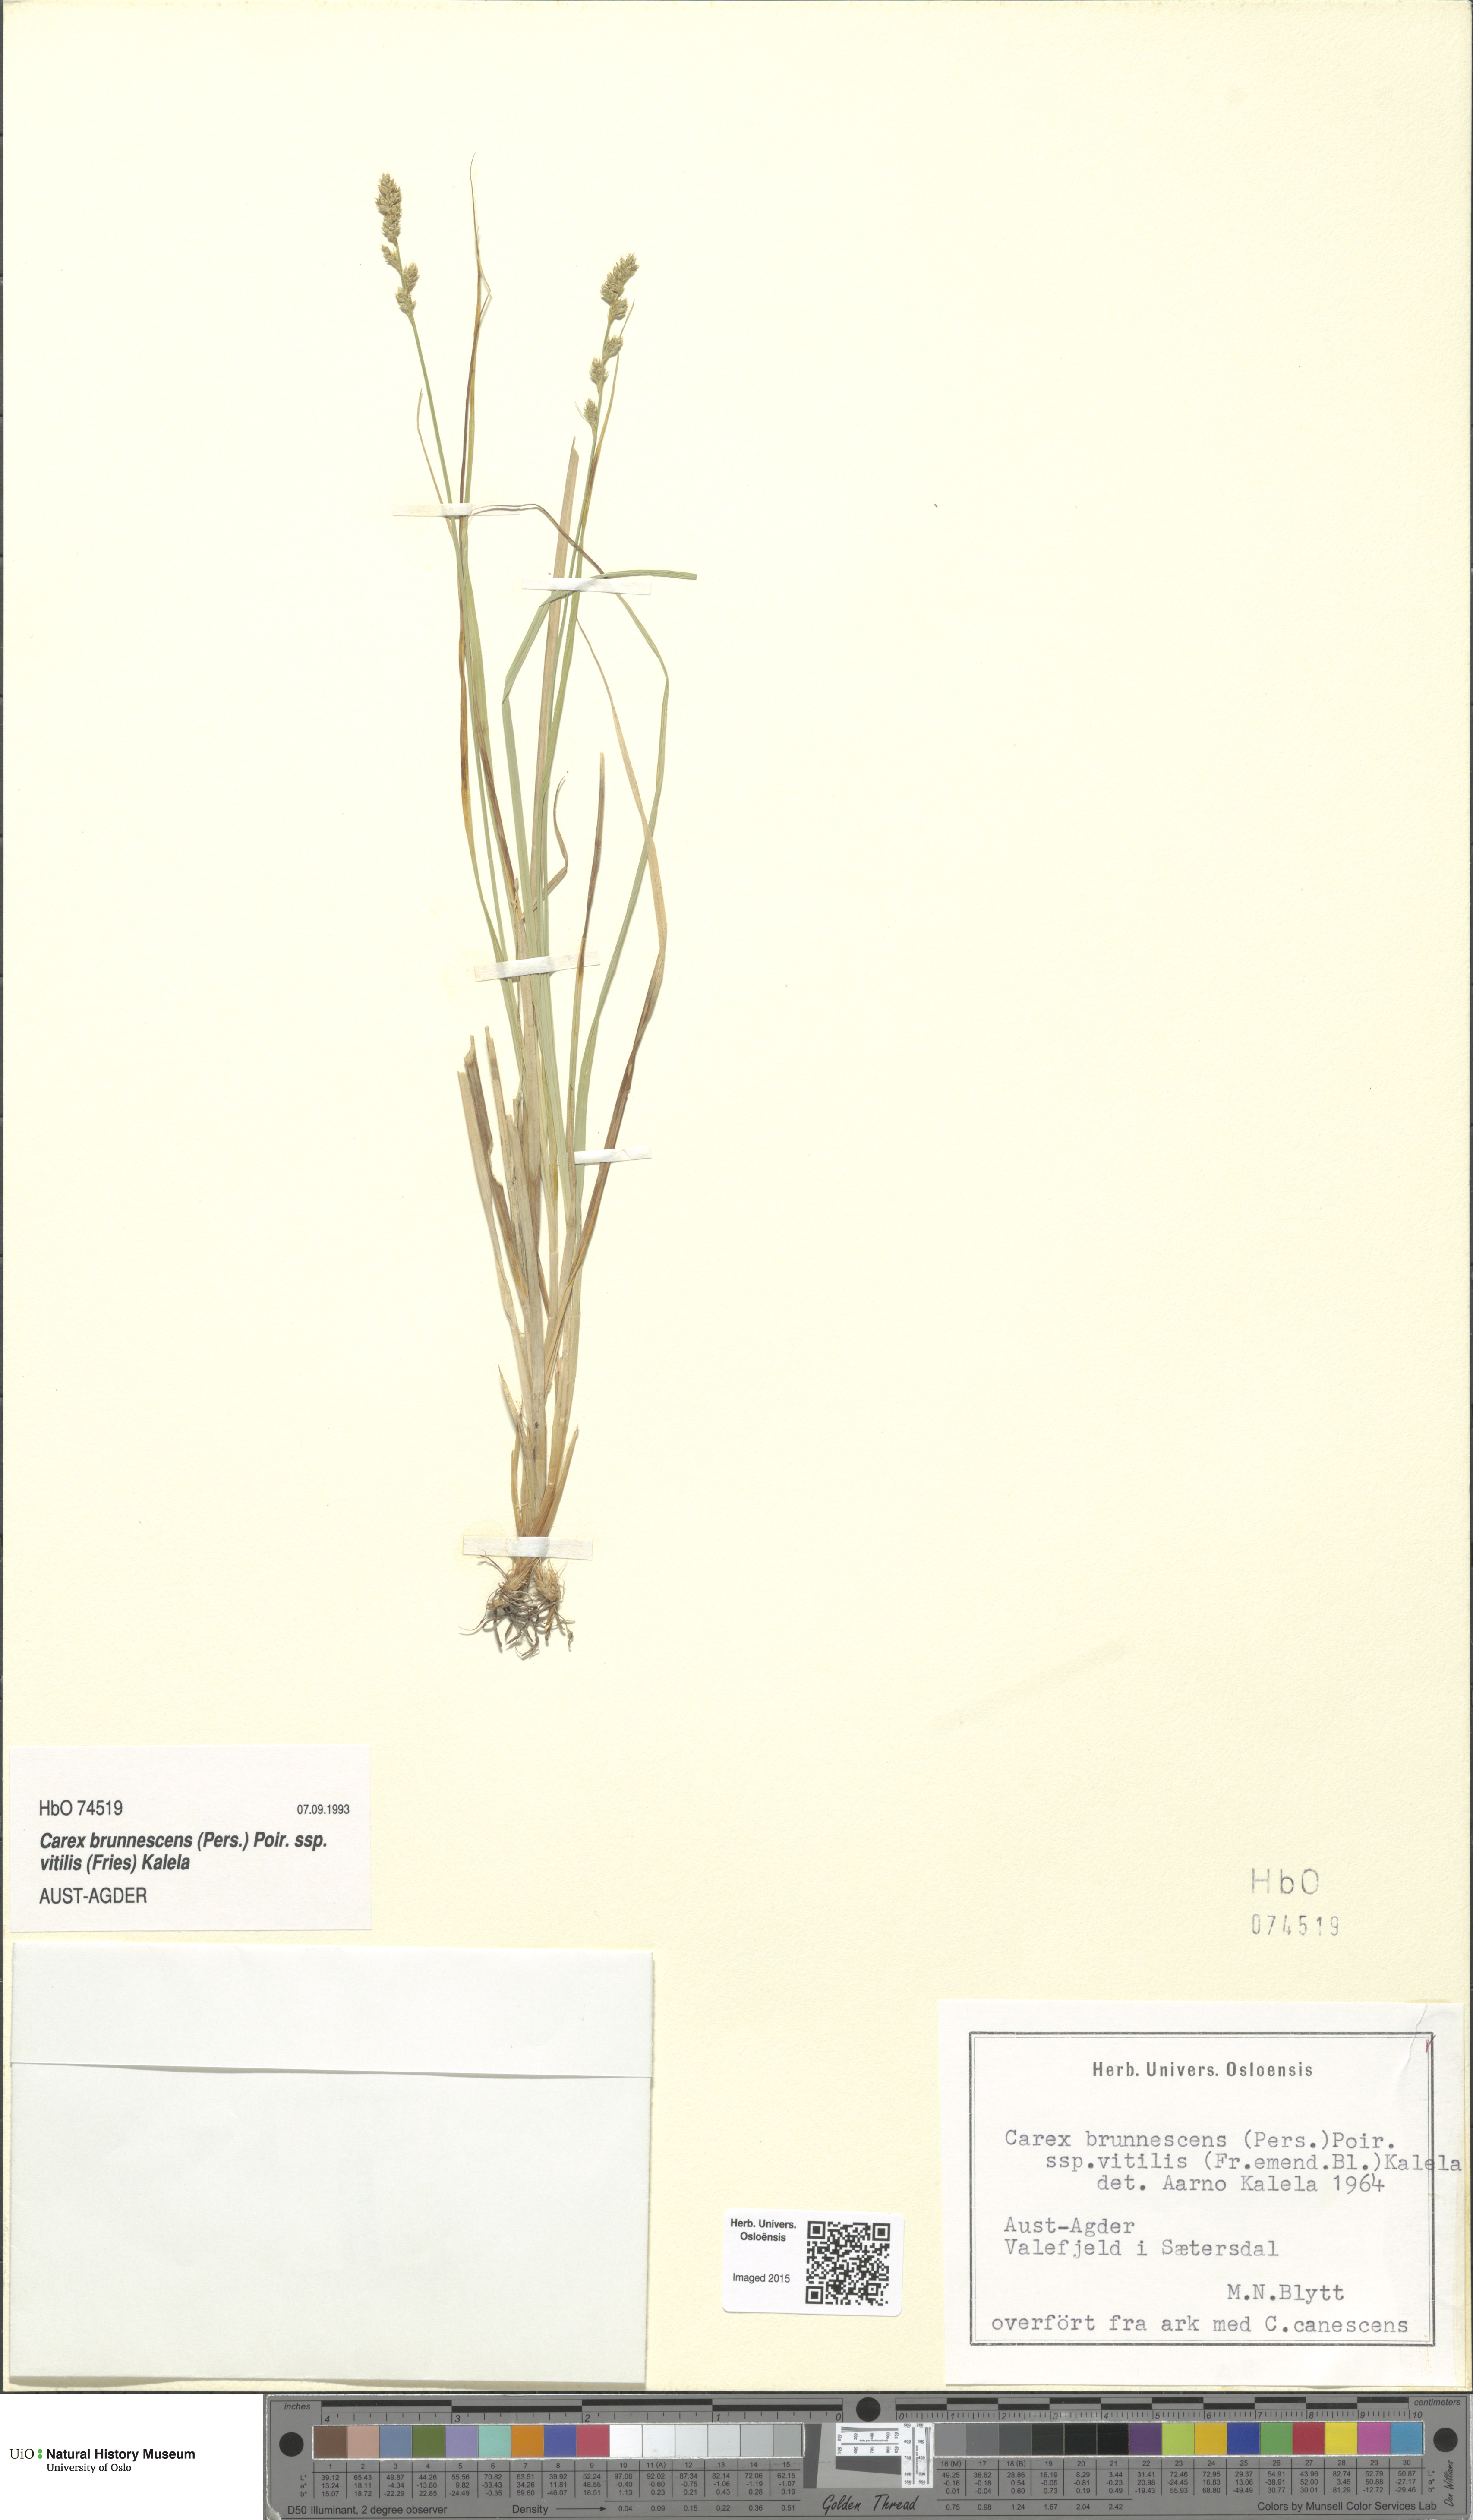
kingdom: Plantae
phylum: Tracheophyta
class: Liliopsida
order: Poales
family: Cyperaceae
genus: Carex
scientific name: Carex brunnescens
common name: Brown sedge
